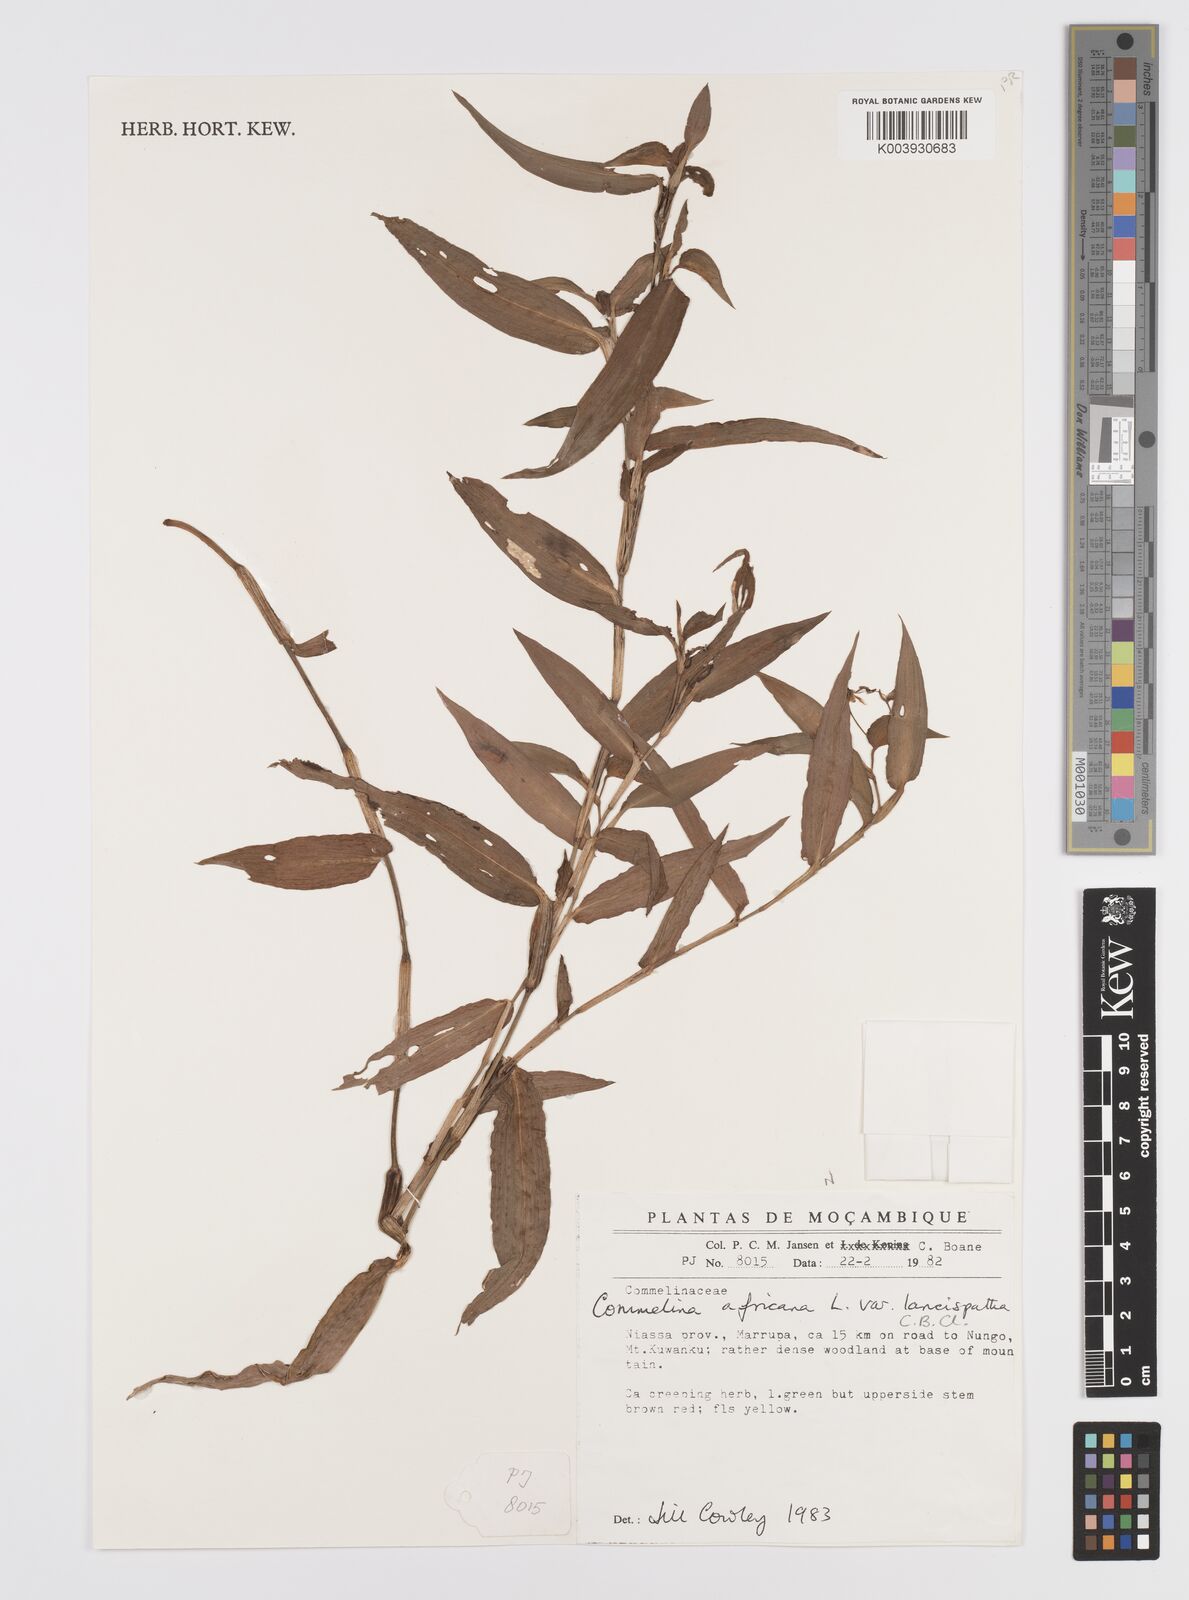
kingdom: Plantae
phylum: Tracheophyta
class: Liliopsida
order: Commelinales
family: Commelinaceae
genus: Commelina
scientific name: Commelina africana
